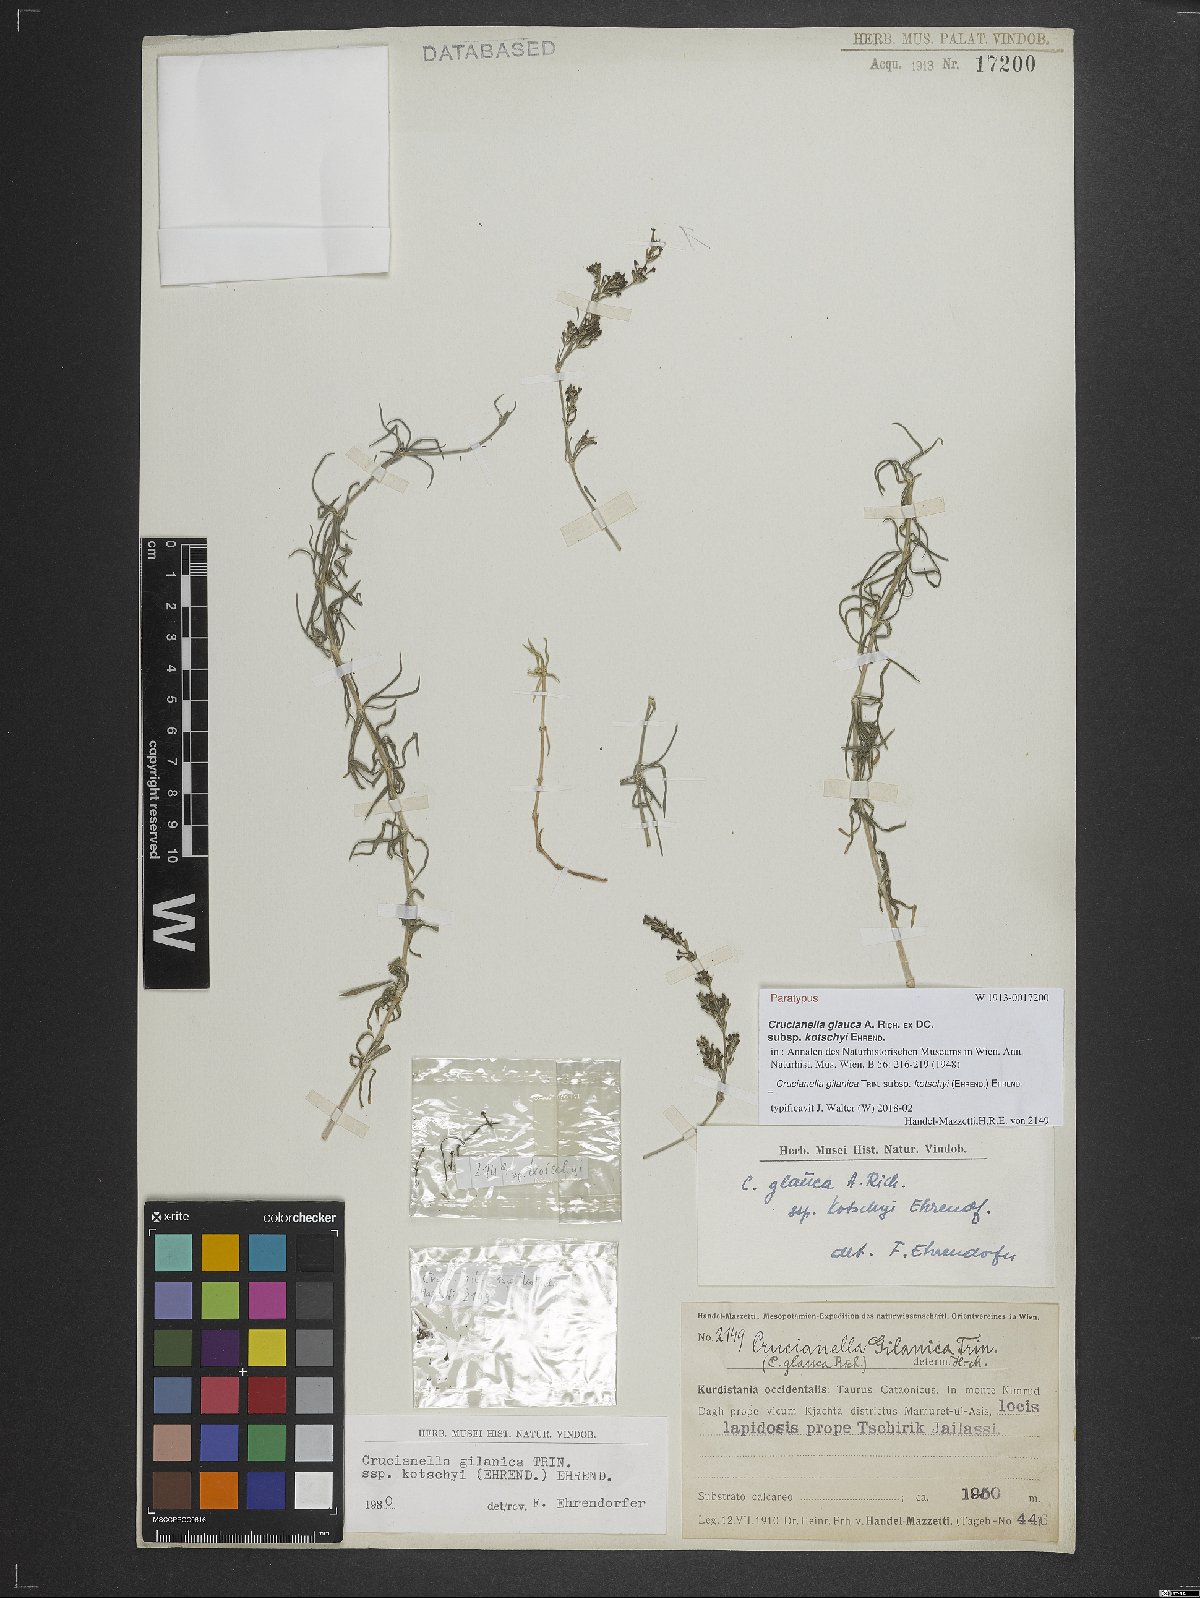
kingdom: Plantae
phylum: Tracheophyta
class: Magnoliopsida
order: Gentianales
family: Rubiaceae
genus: Crucianella
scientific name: Crucianella gilanica
